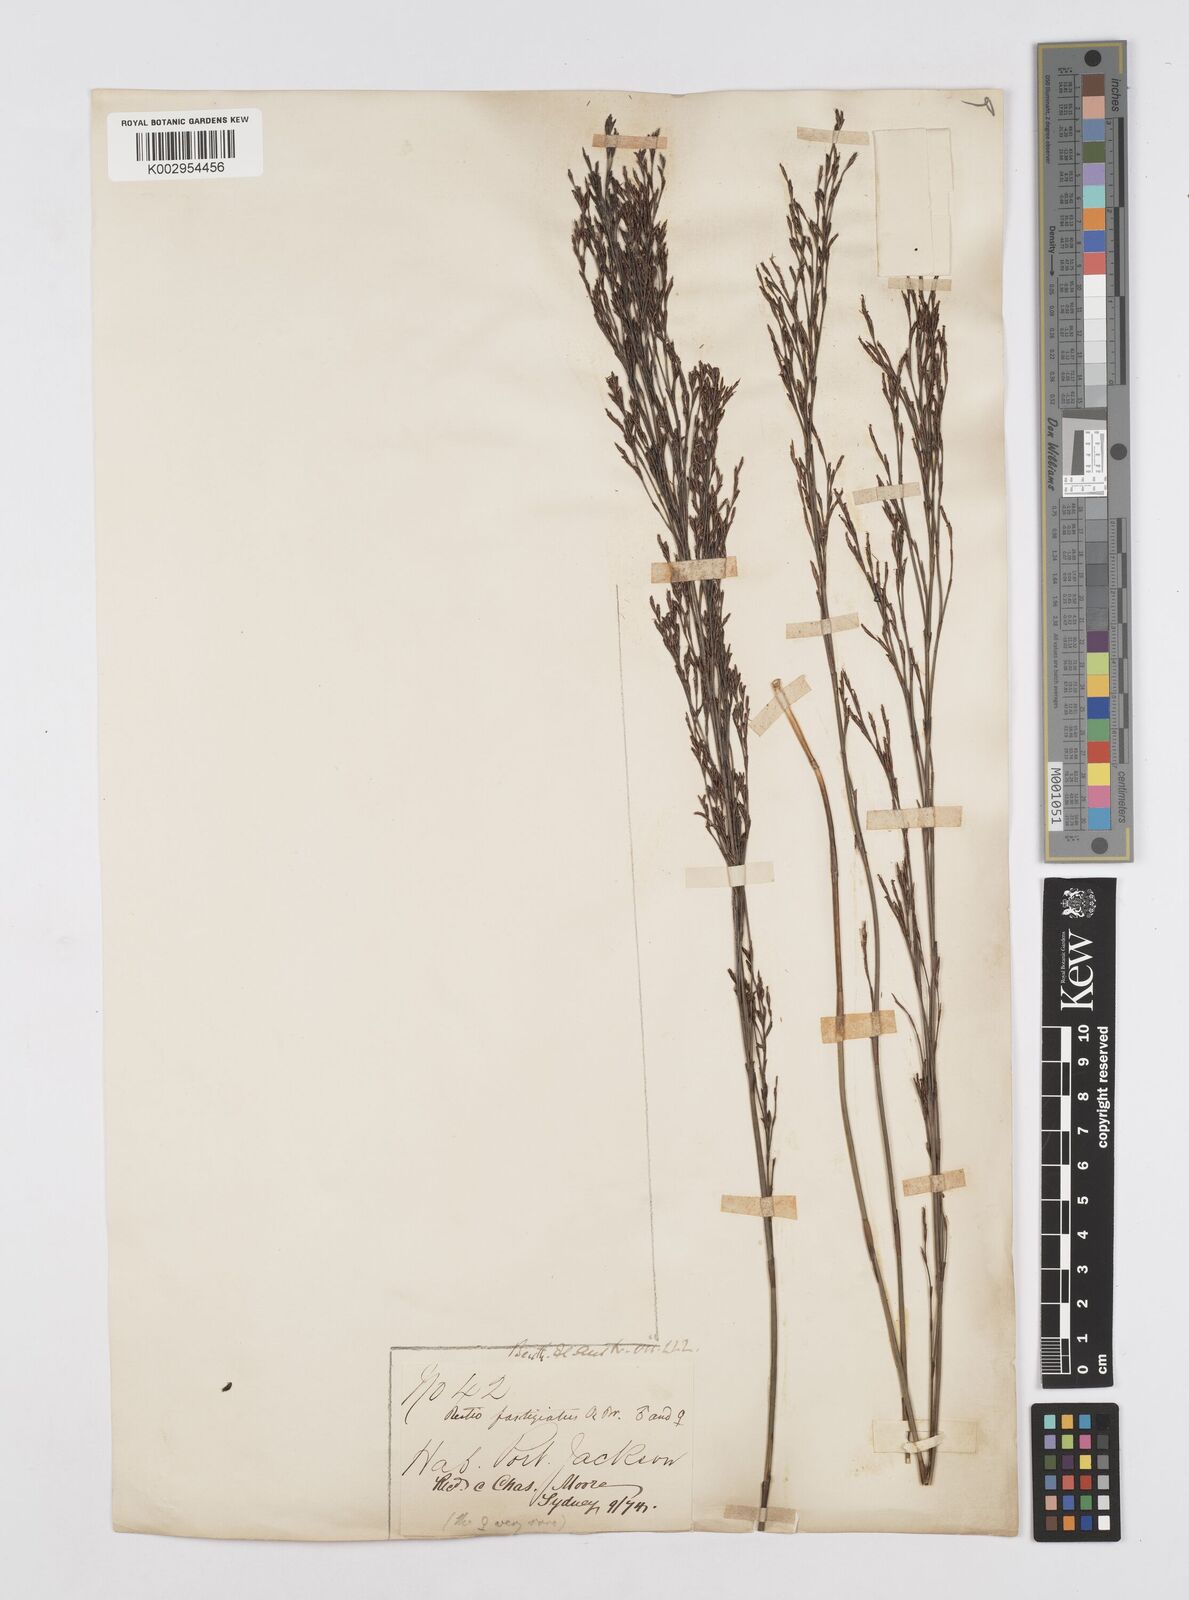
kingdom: Plantae
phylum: Tracheophyta
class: Liliopsida
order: Poales
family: Restionaceae
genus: Chordifex
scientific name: Chordifex fastigiatus
